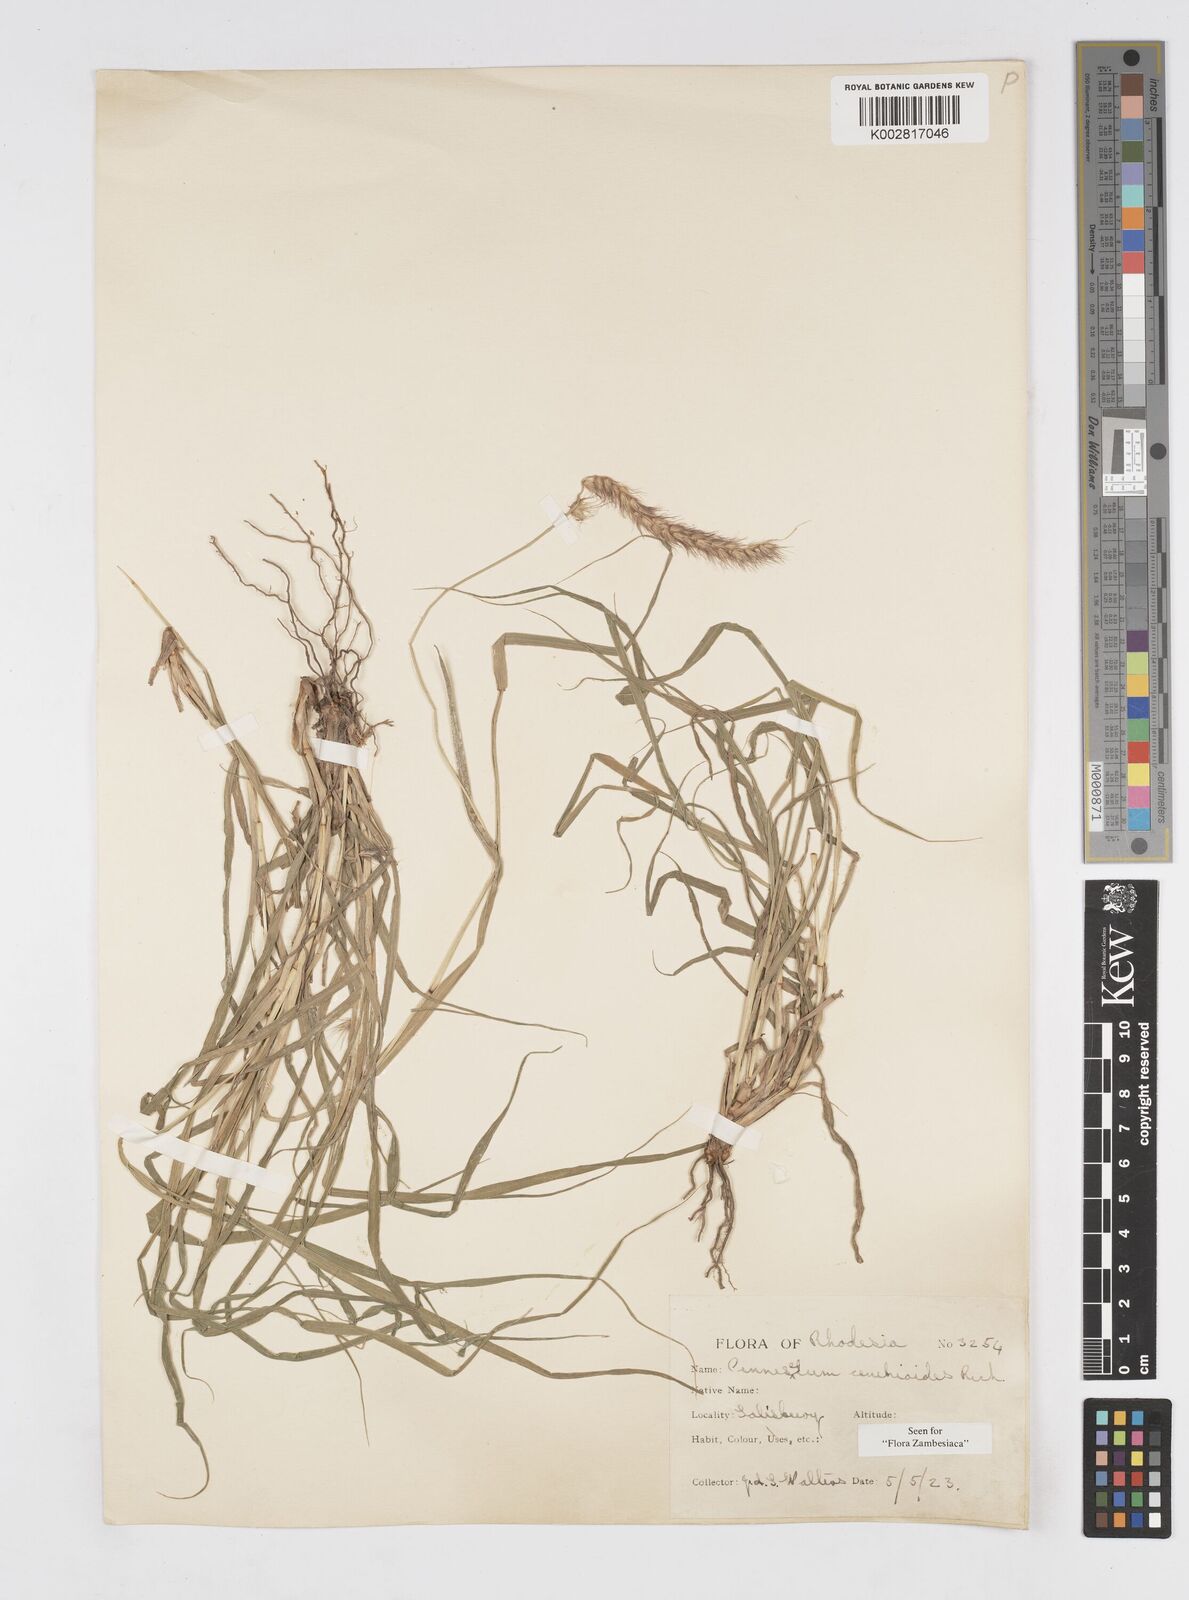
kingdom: Plantae
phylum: Tracheophyta
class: Liliopsida
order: Poales
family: Poaceae
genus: Cenchrus
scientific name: Cenchrus ciliaris
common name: Buffelgrass
